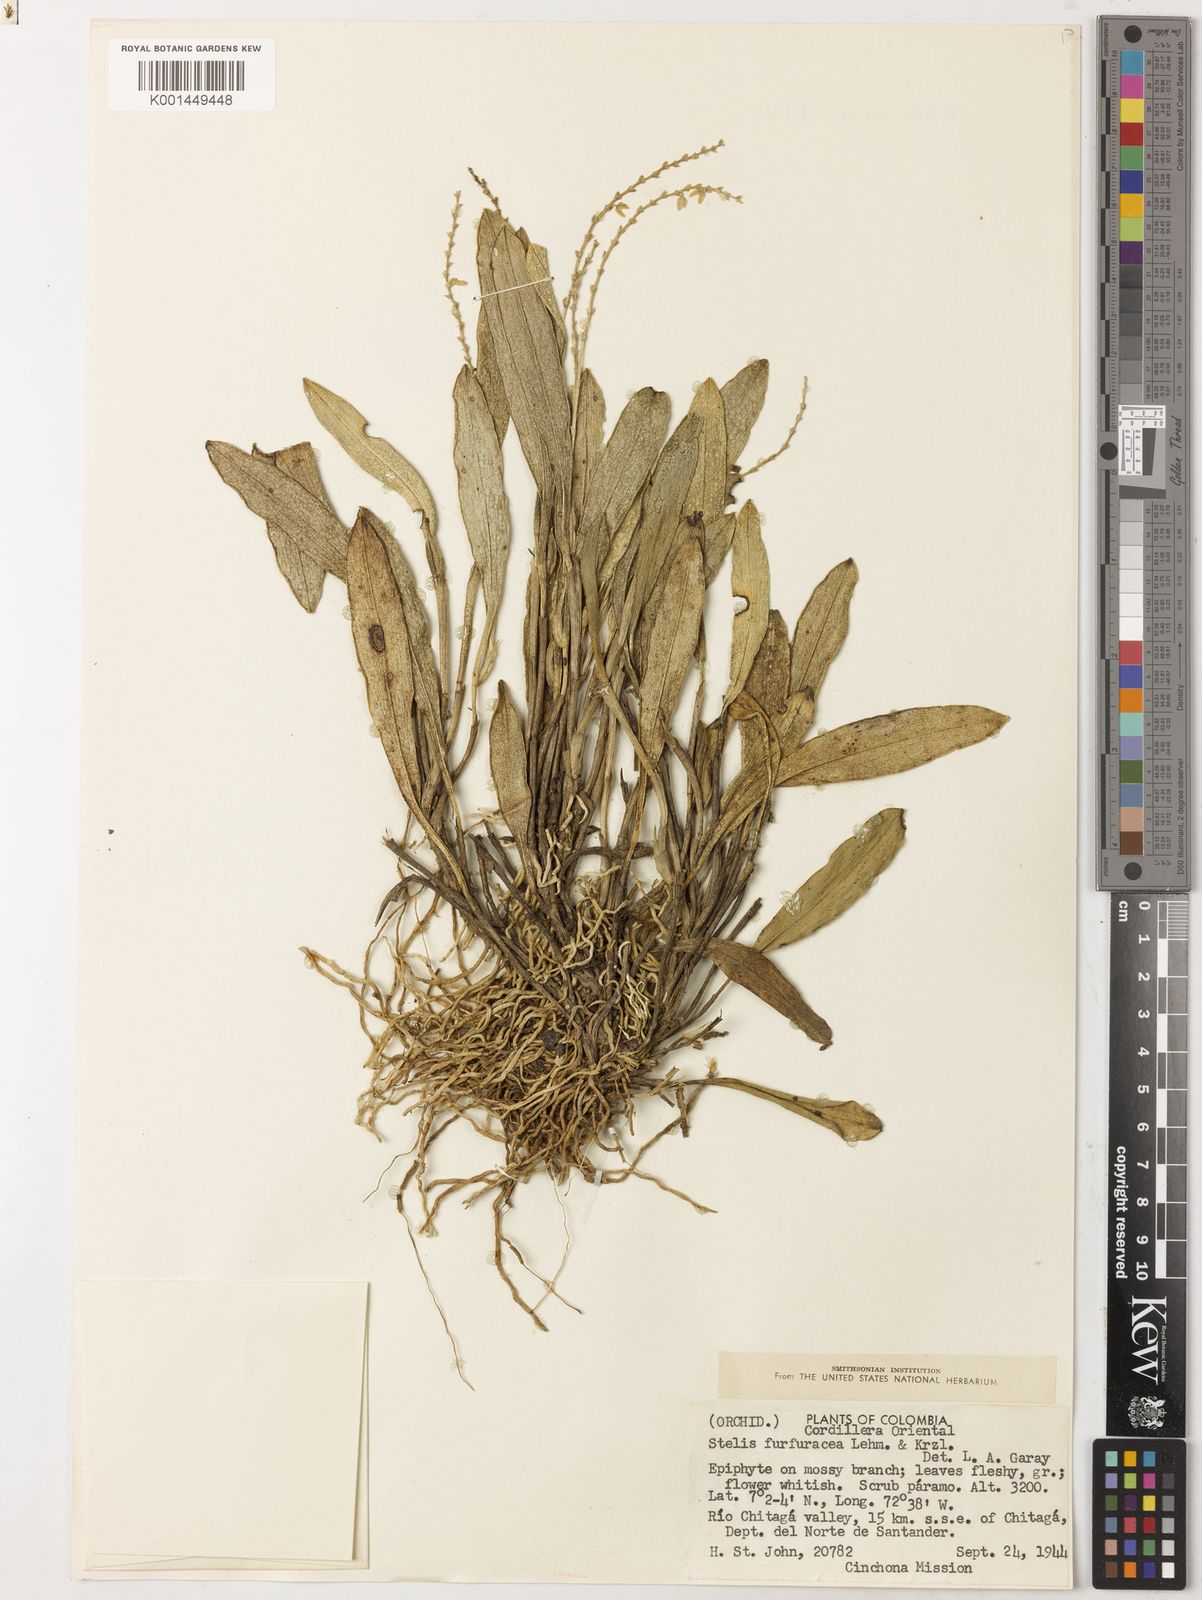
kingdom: Plantae
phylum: Tracheophyta
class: Liliopsida
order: Asparagales
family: Orchidaceae
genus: Stelis
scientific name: Stelis furfuracea
